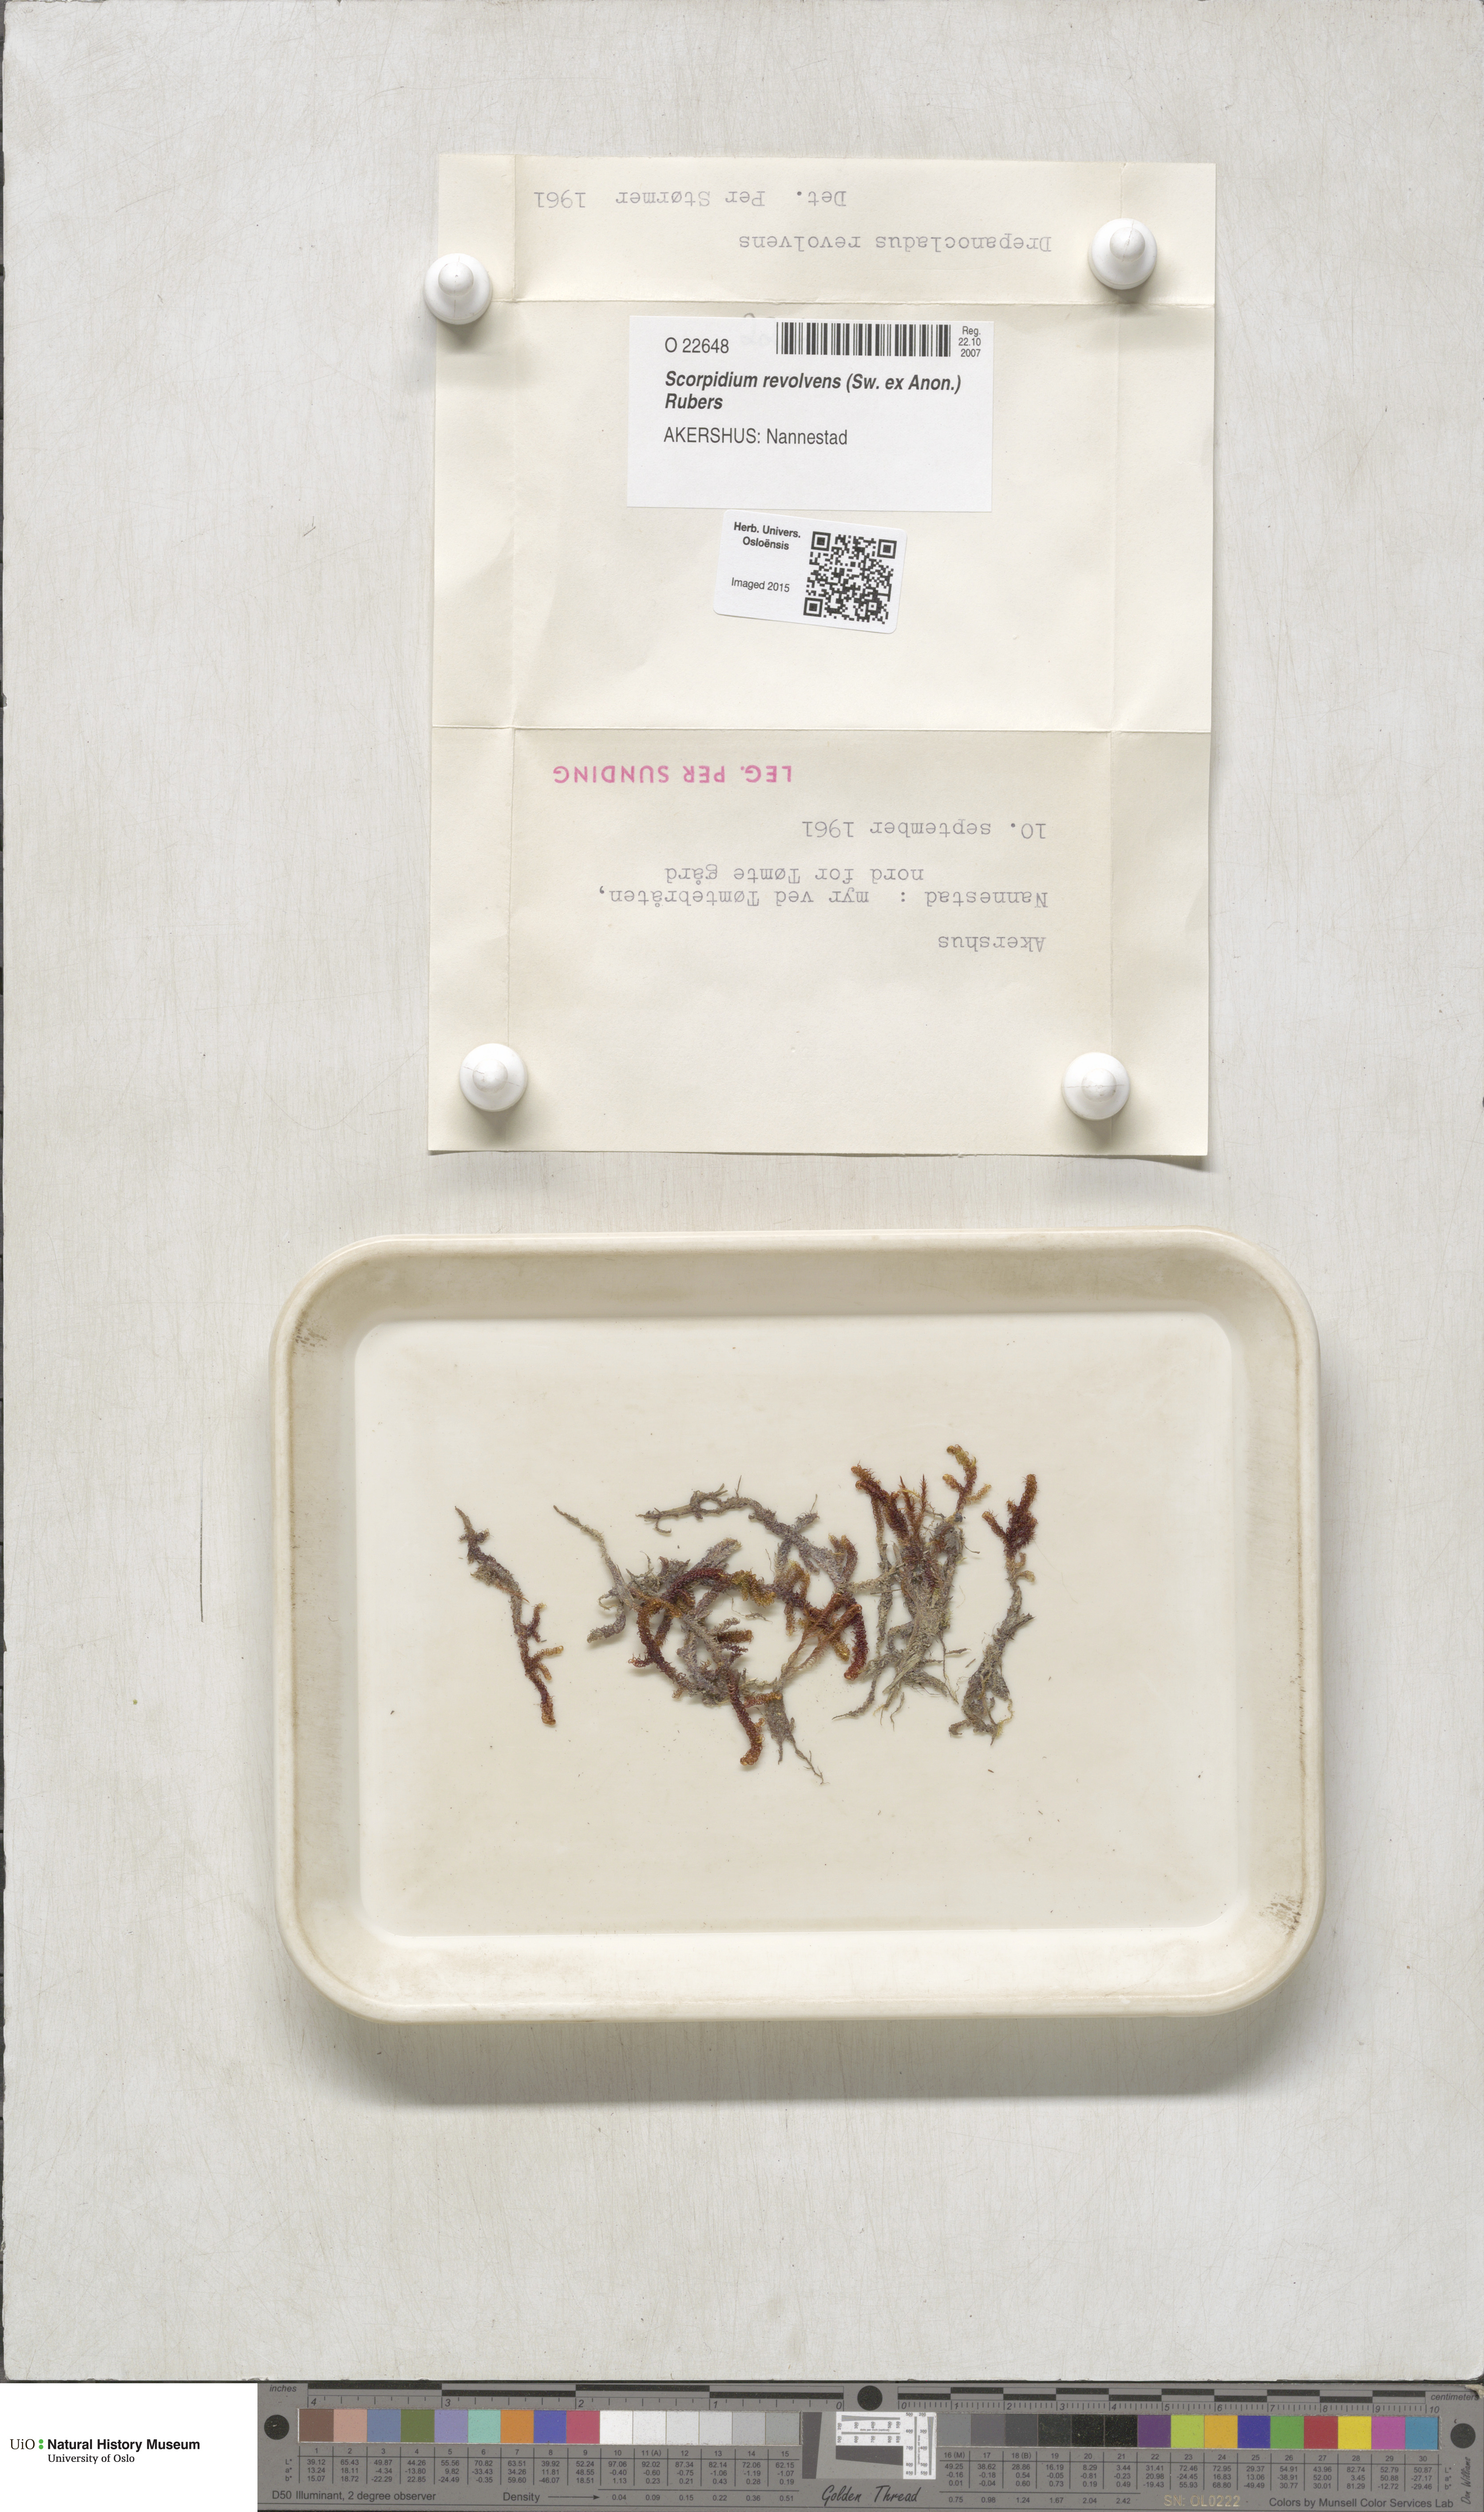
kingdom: Plantae
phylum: Bryophyta
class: Bryopsida
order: Hypnales
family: Scorpidiaceae
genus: Scorpidium
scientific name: Scorpidium revolvens
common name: Rusty hook moss
